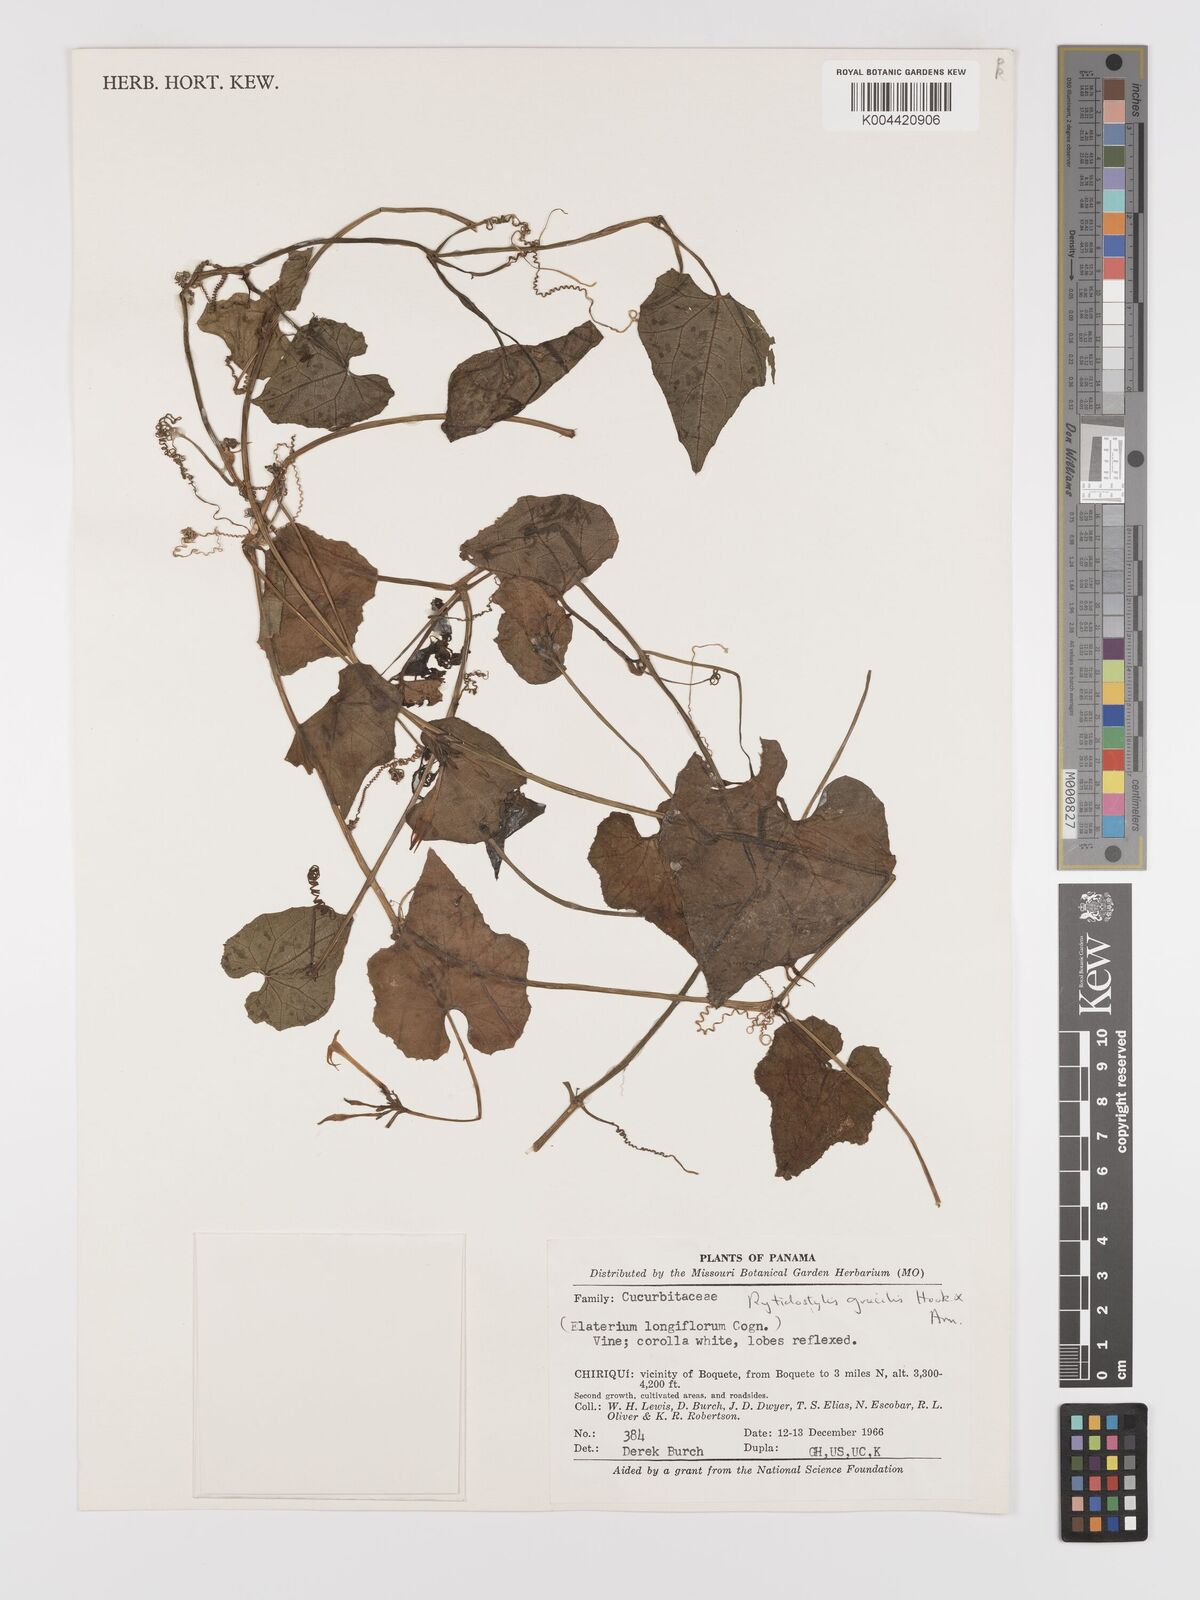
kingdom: Plantae
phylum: Tracheophyta
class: Magnoliopsida
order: Cucurbitales
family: Cucurbitaceae
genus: Cyclanthera
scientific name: Cyclanthera filiformis
